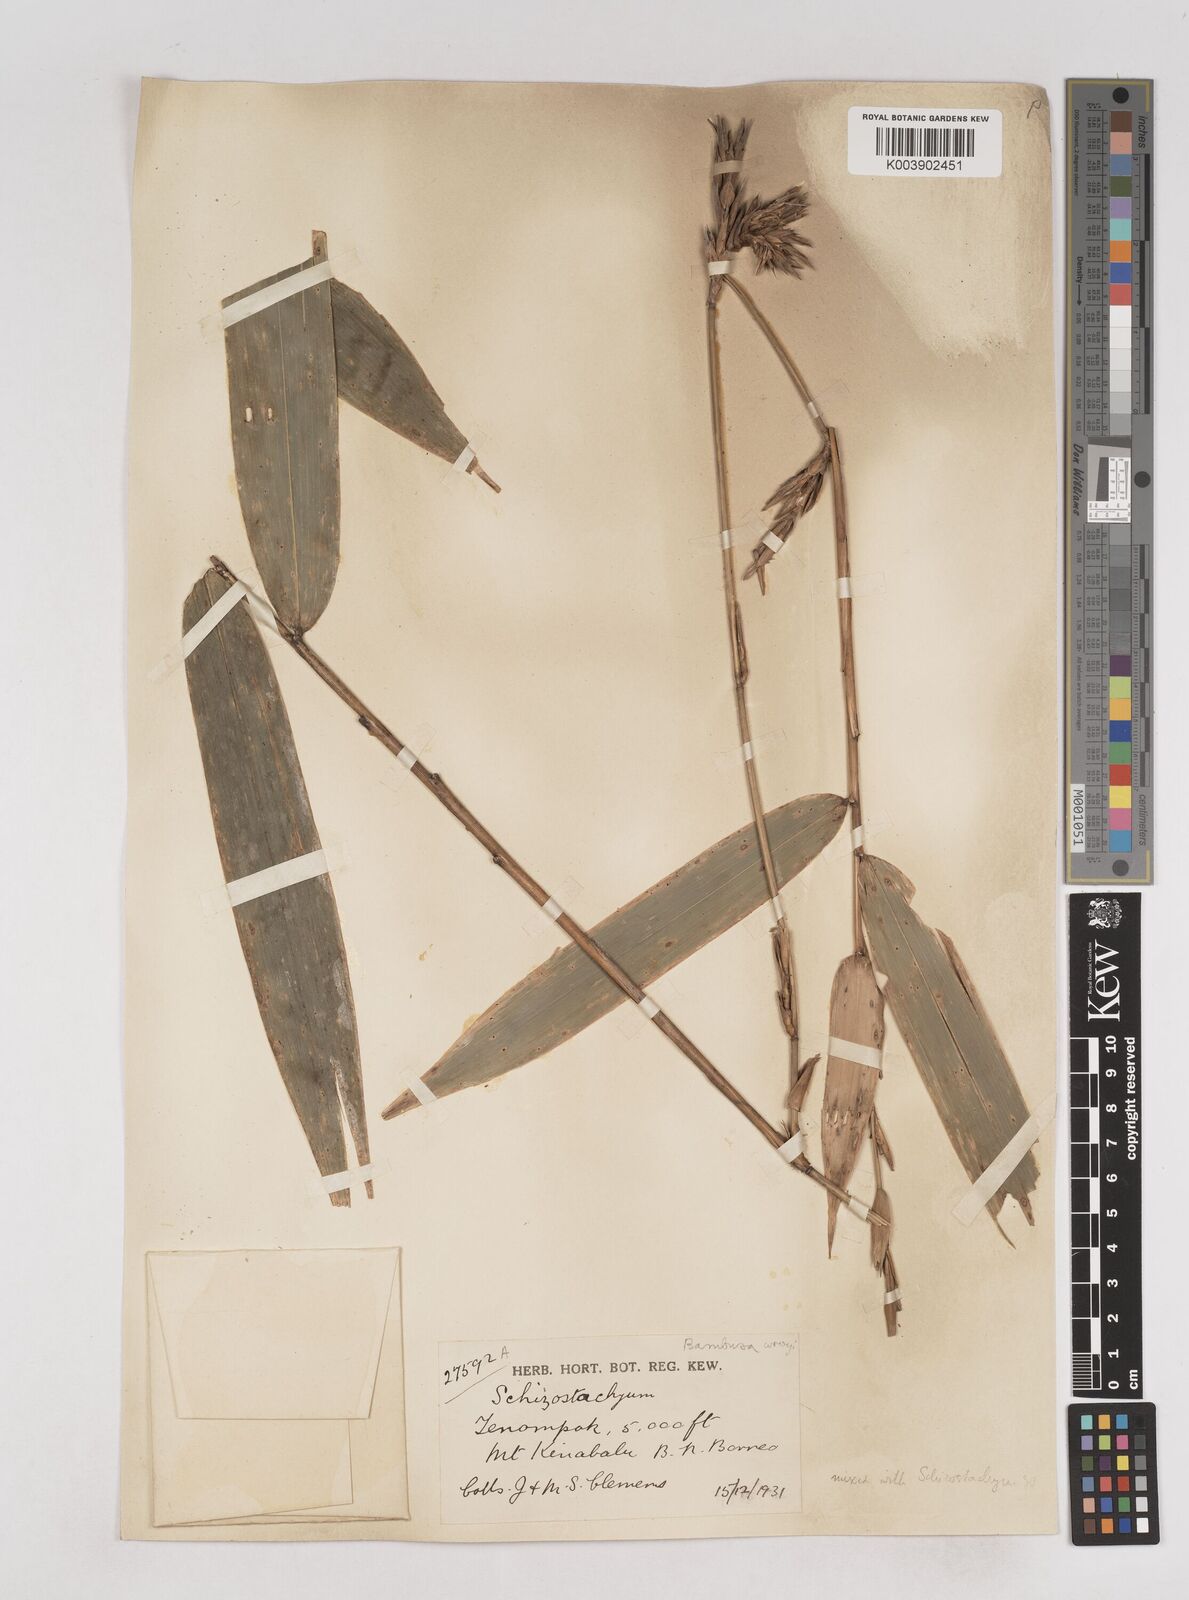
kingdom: Plantae
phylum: Tracheophyta
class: Liliopsida
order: Poales
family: Poaceae
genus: Schizostachyum
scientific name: Schizostachyum
